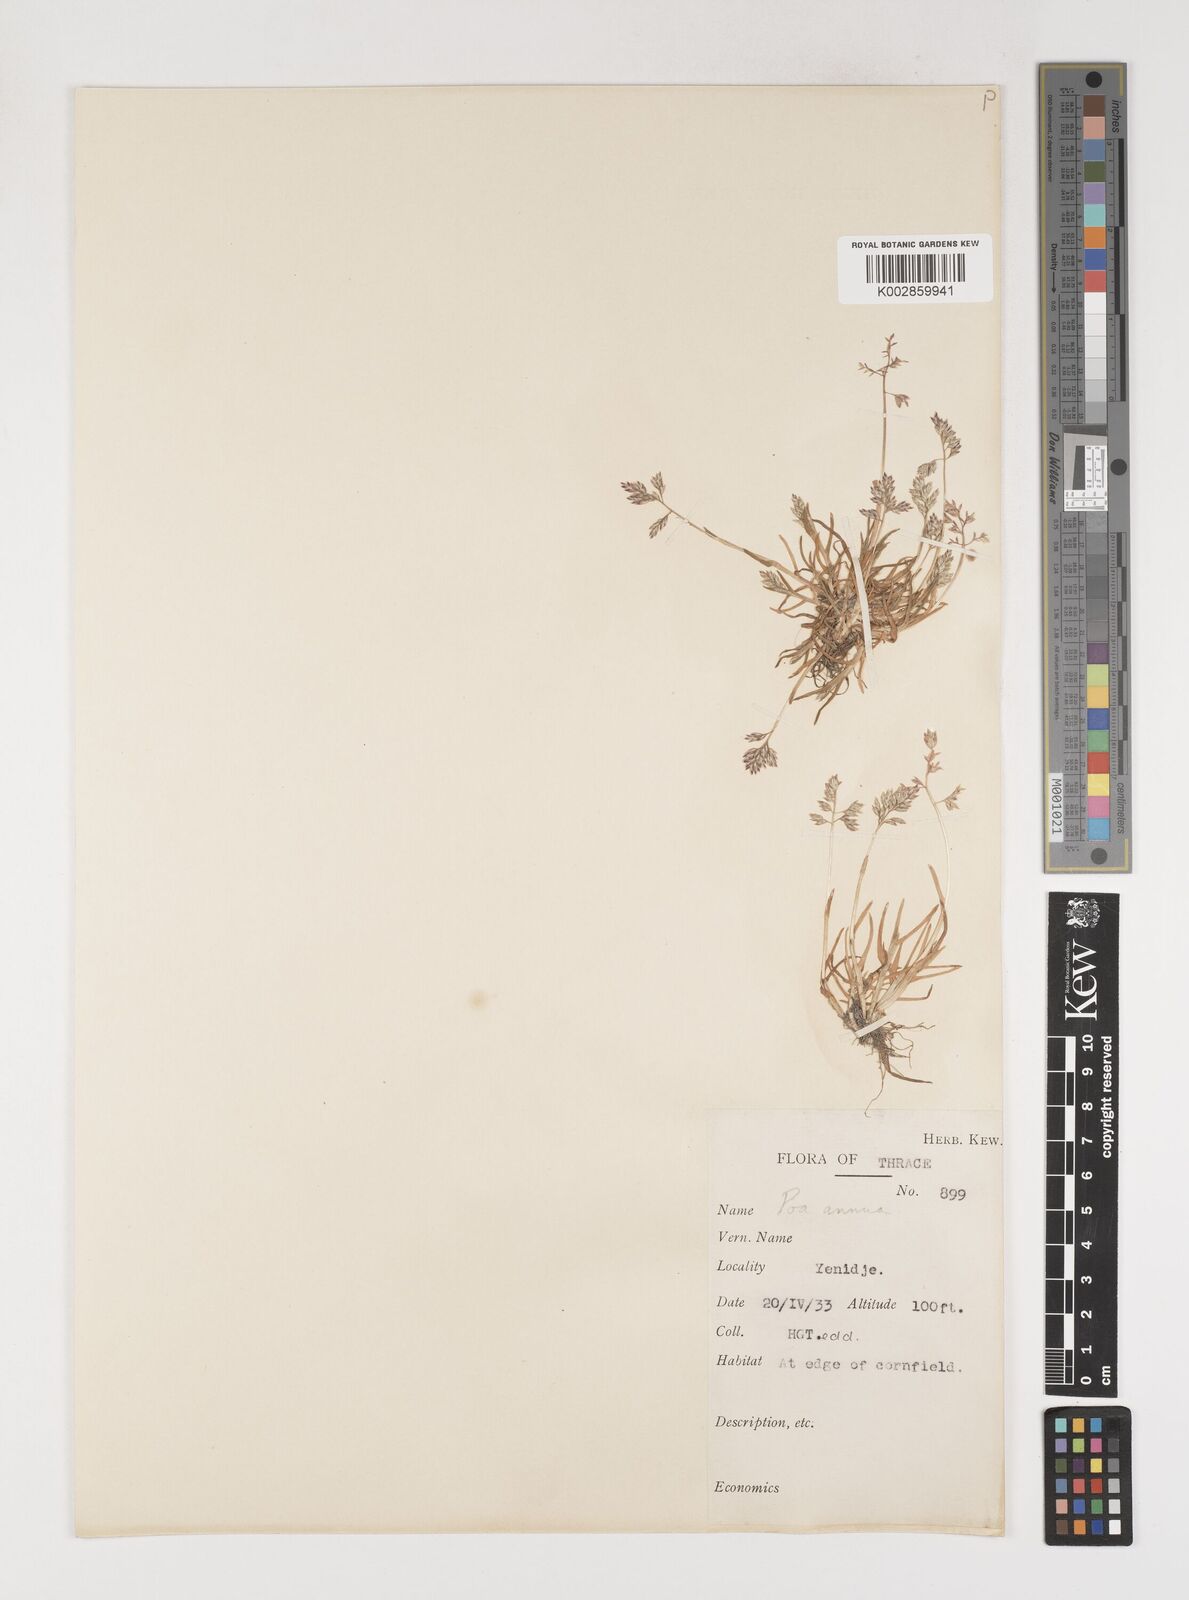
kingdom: Plantae
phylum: Tracheophyta
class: Liliopsida
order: Poales
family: Poaceae
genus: Poa
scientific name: Poa annua
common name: Annual bluegrass
